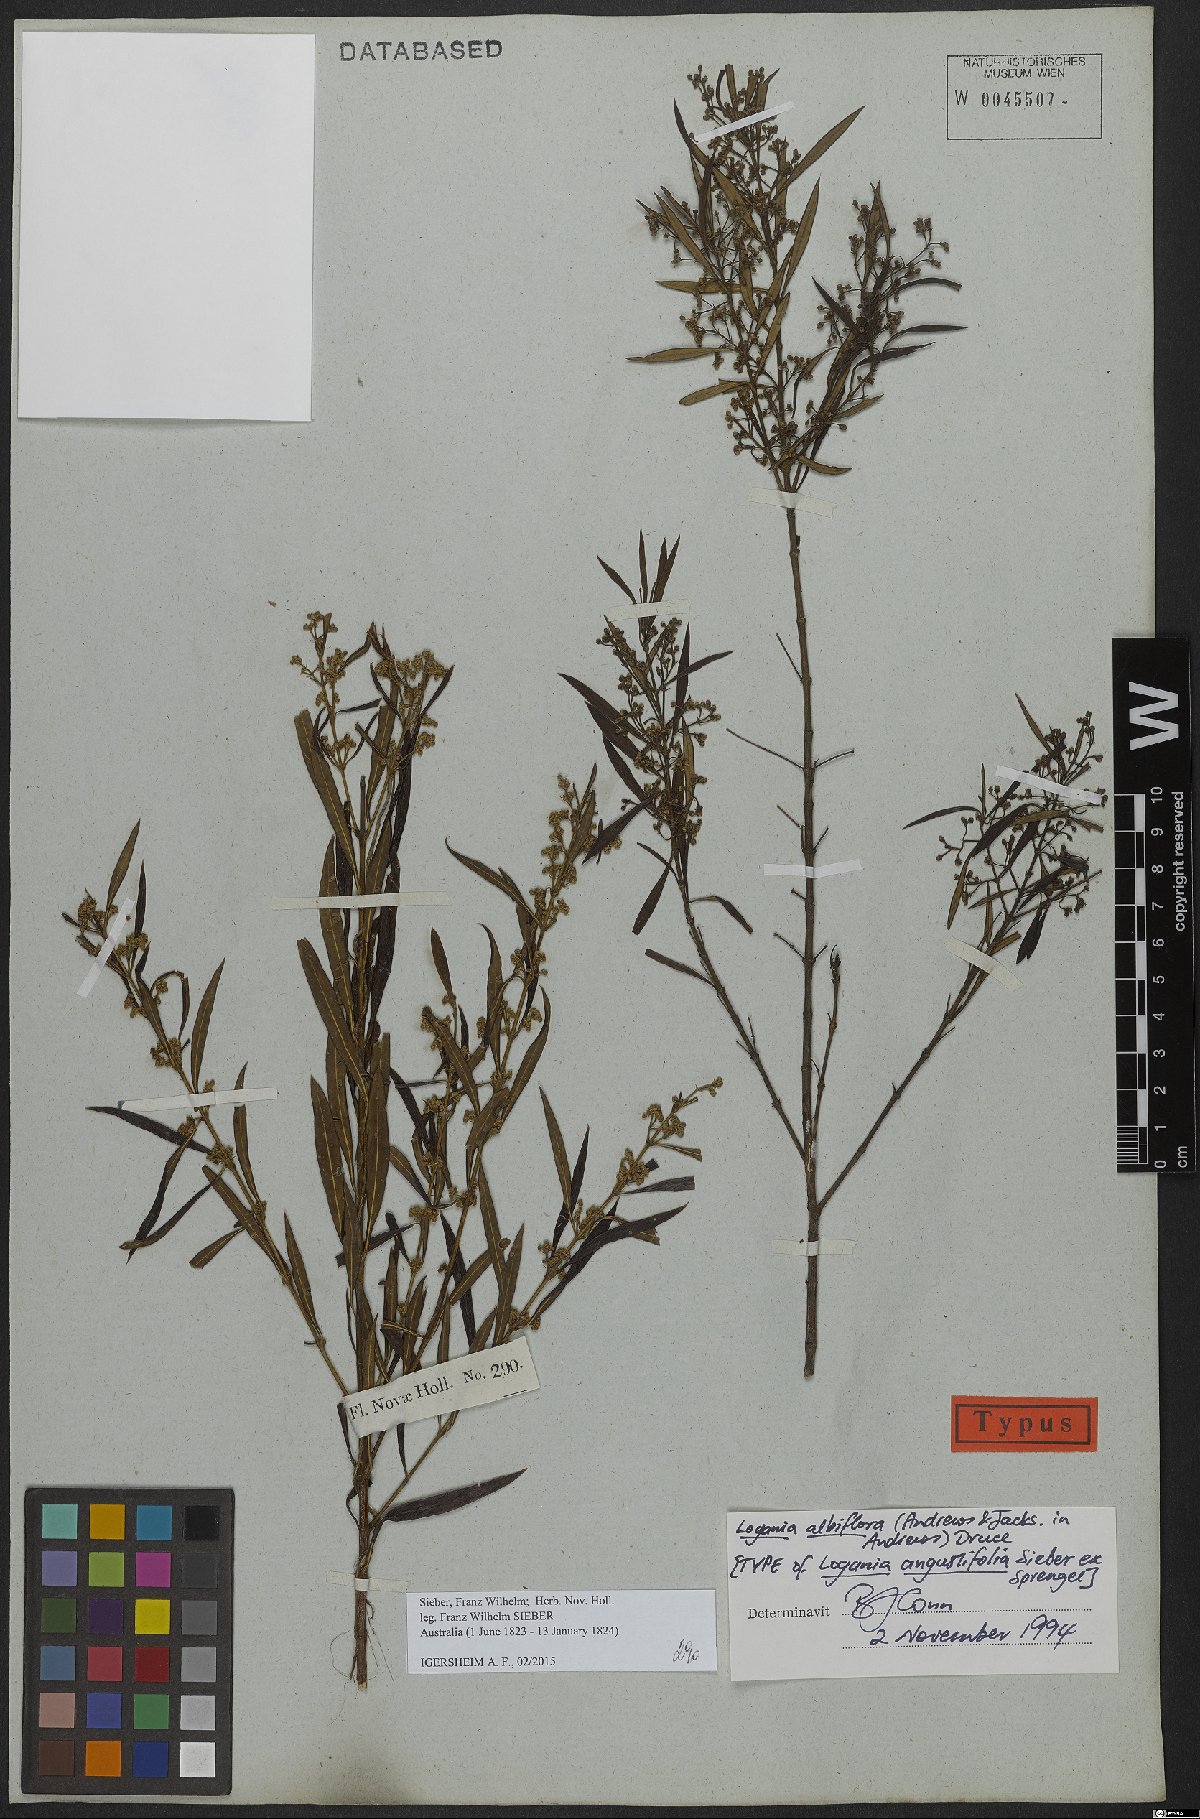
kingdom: Plantae
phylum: Tracheophyta
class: Magnoliopsida
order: Gentianales
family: Loganiaceae
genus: Logania
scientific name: Logania albiflora
